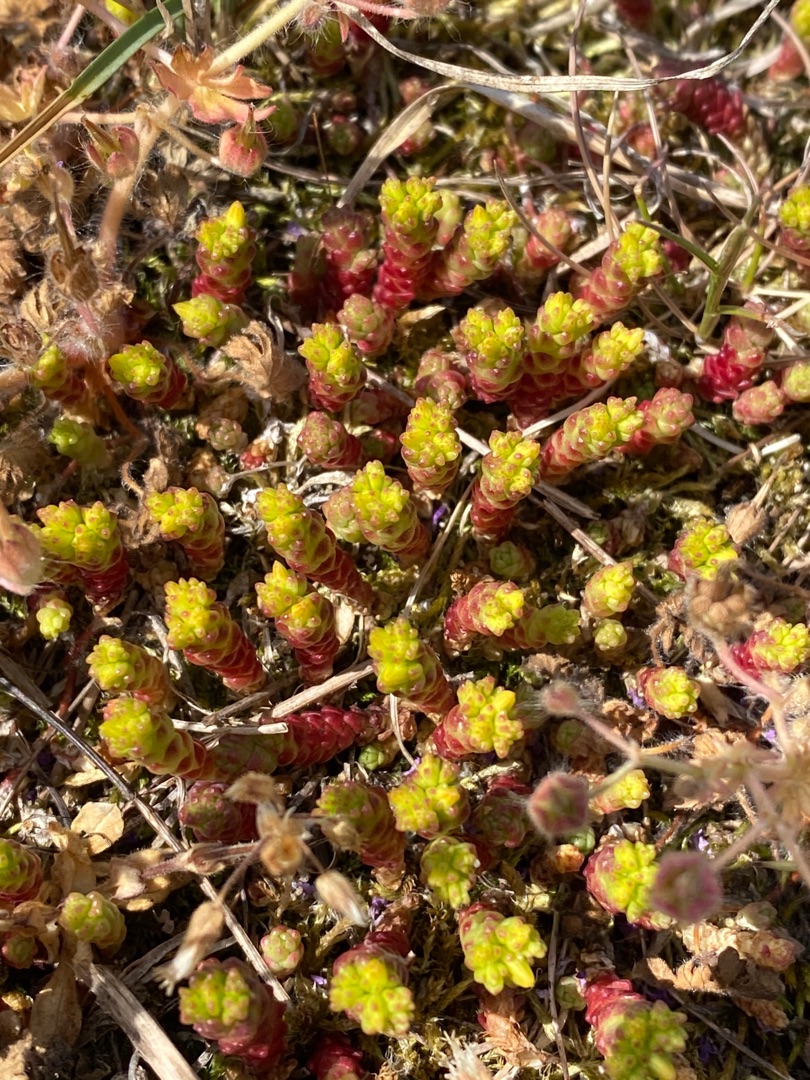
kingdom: Plantae
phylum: Tracheophyta
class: Magnoliopsida
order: Saxifragales
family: Crassulaceae
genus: Sedum
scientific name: Sedum acre
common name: Bidende stenurt
